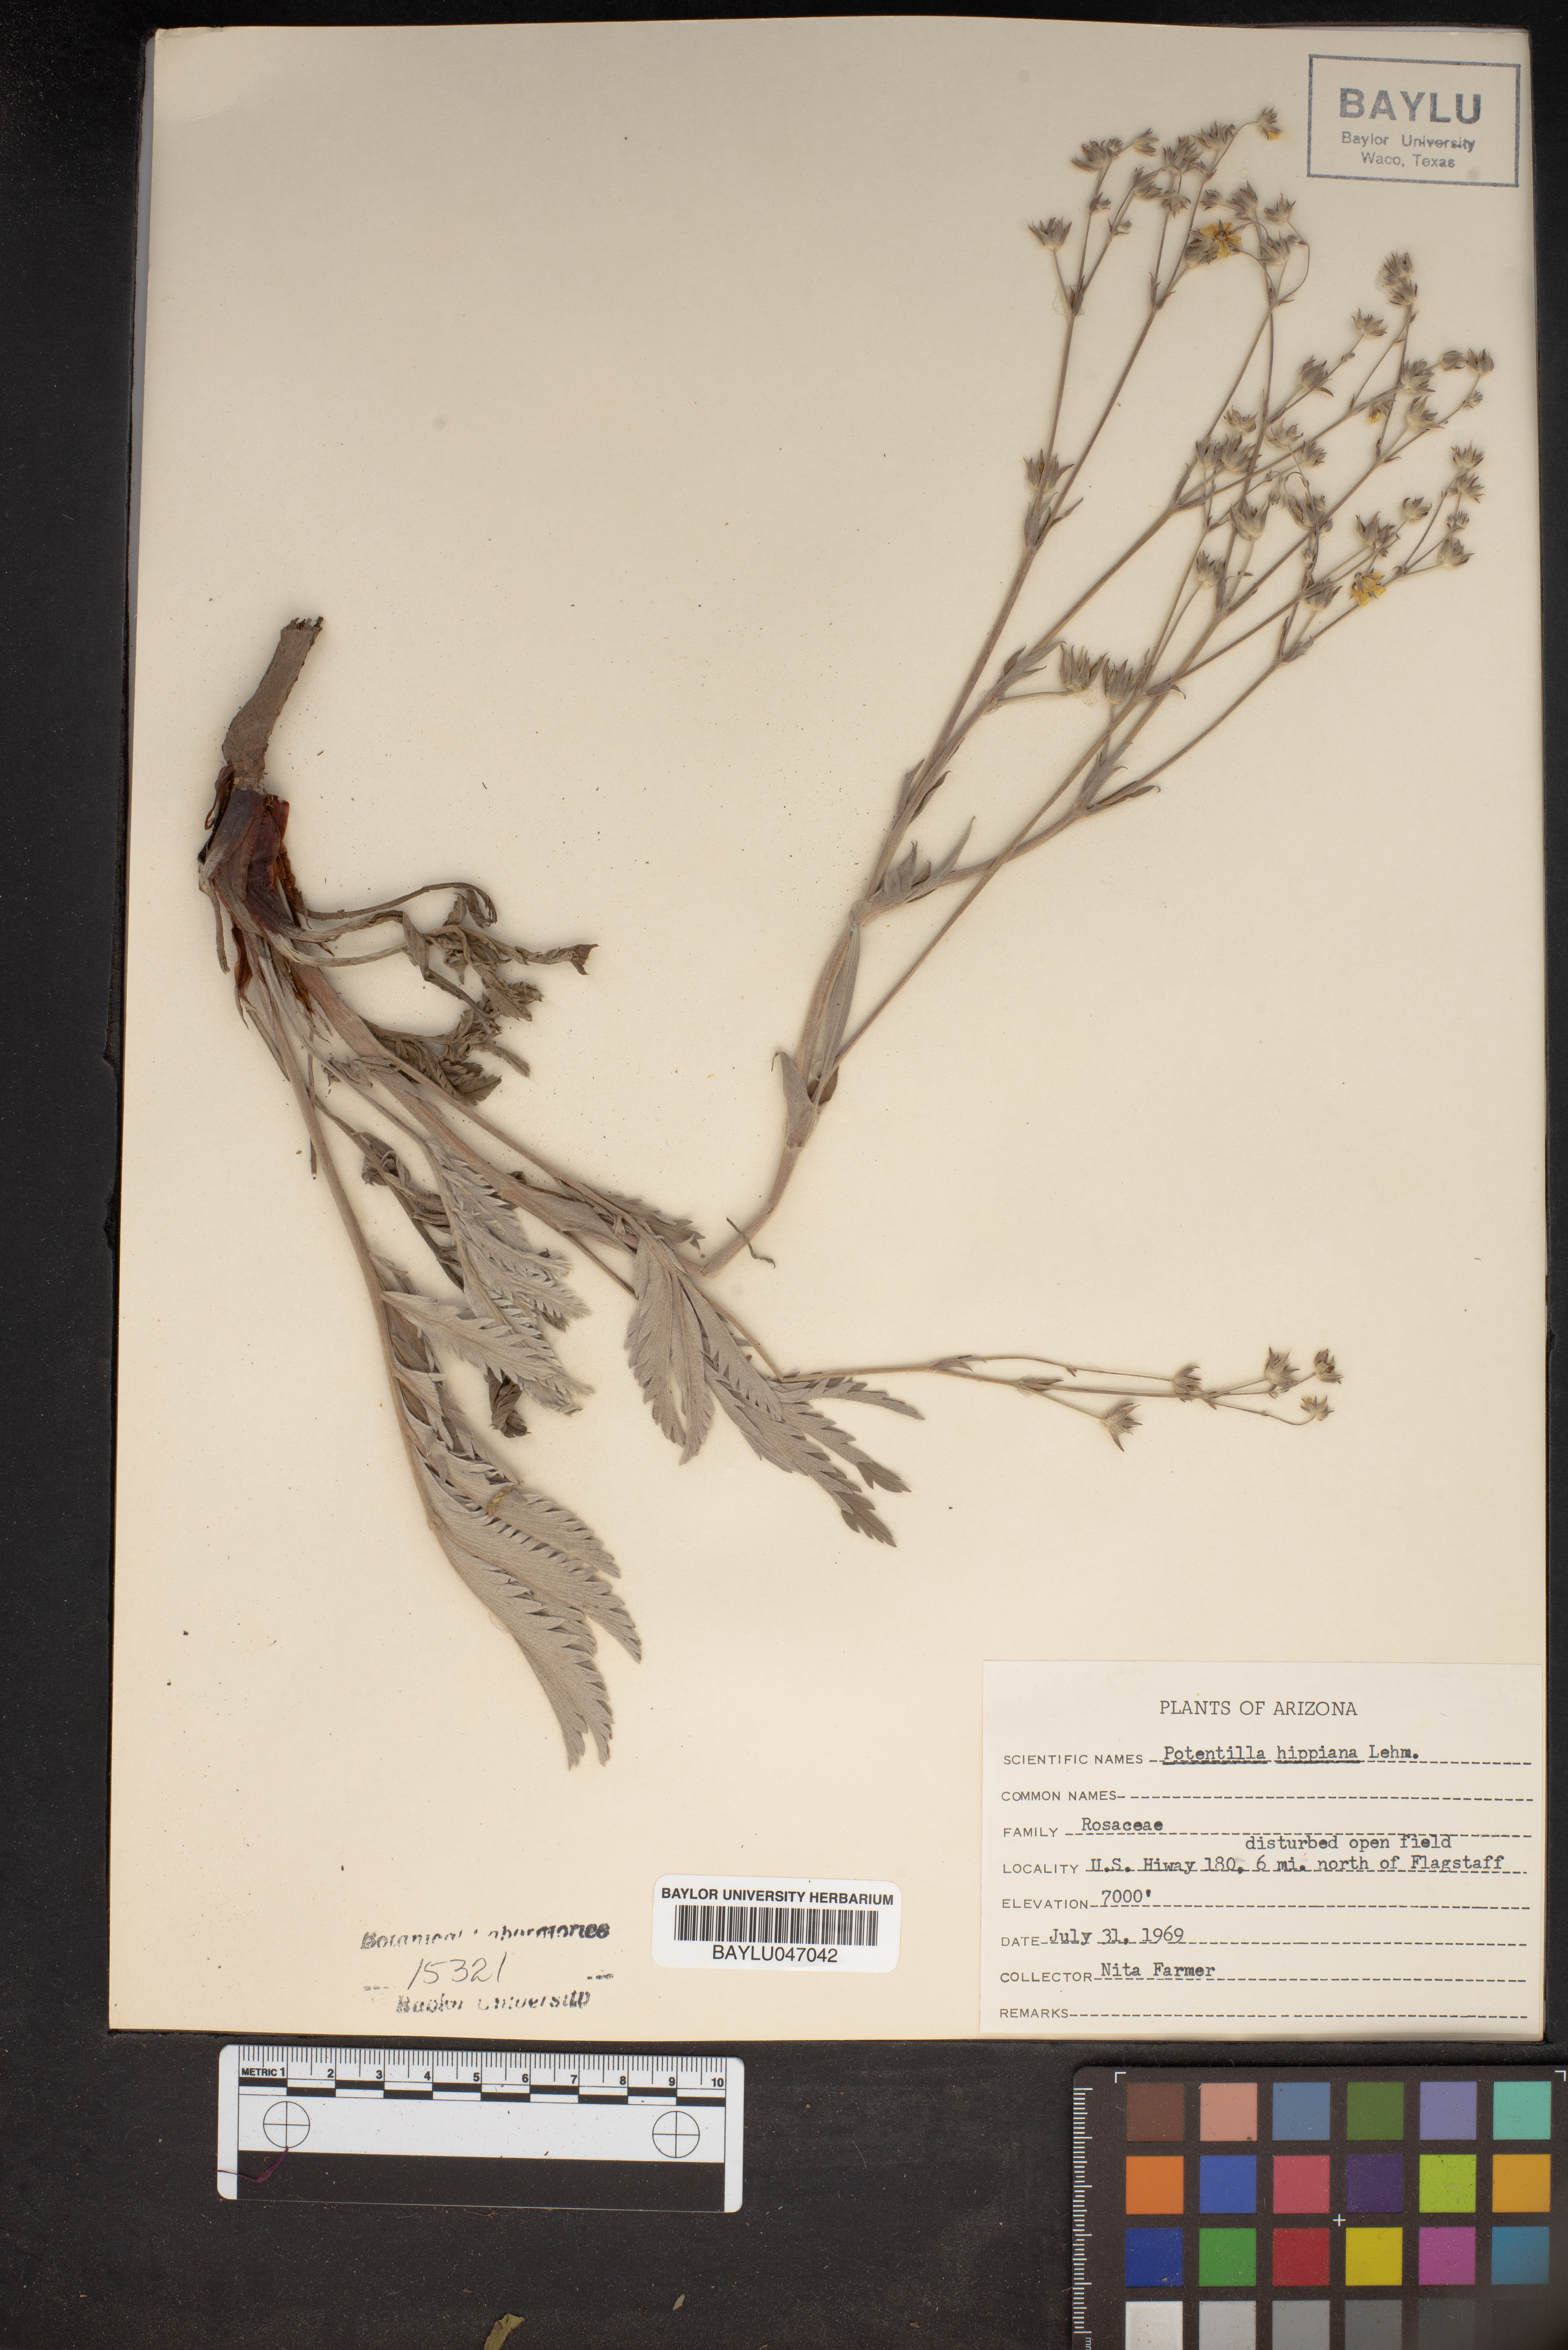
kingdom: Plantae
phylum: Tracheophyta
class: Magnoliopsida
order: Rosales
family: Rosaceae
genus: Potentilla
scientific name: Potentilla hippiana
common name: Woolly cinquefoil
